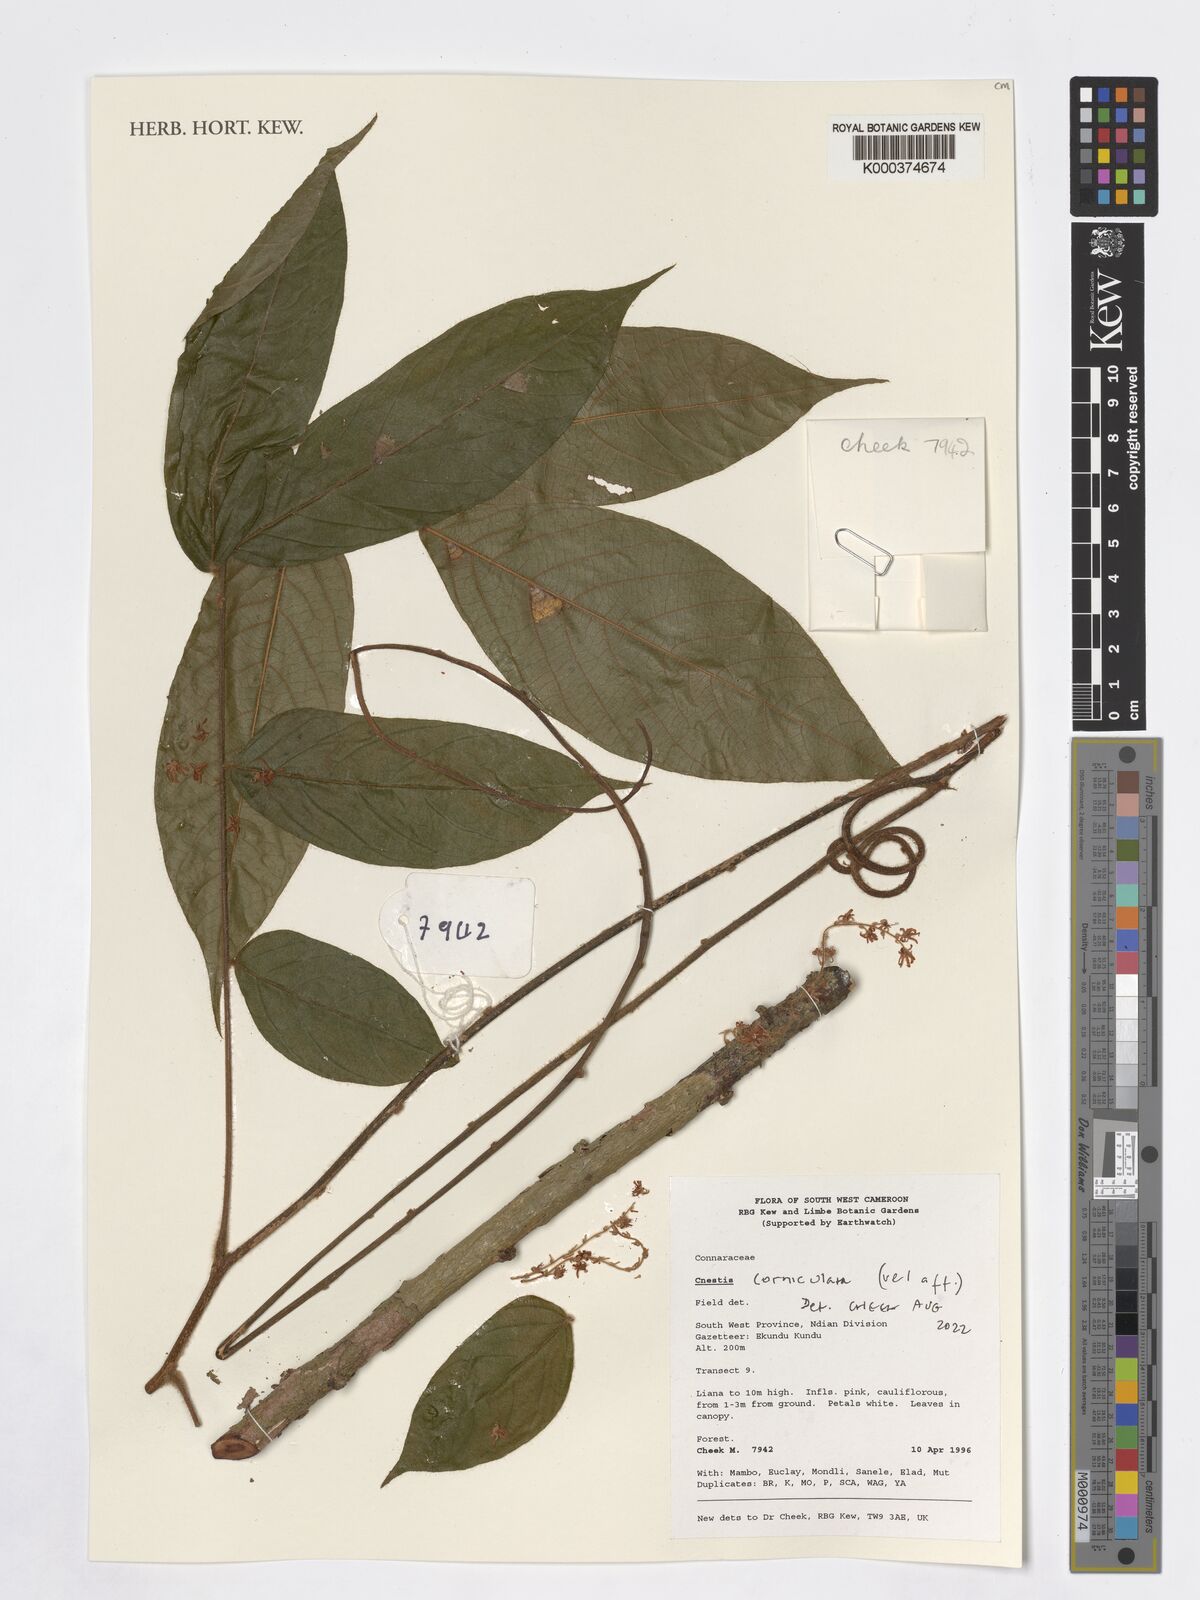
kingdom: Plantae
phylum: Tracheophyta
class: Magnoliopsida
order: Oxalidales
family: Connaraceae
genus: Cnestis
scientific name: Cnestis corniculata
